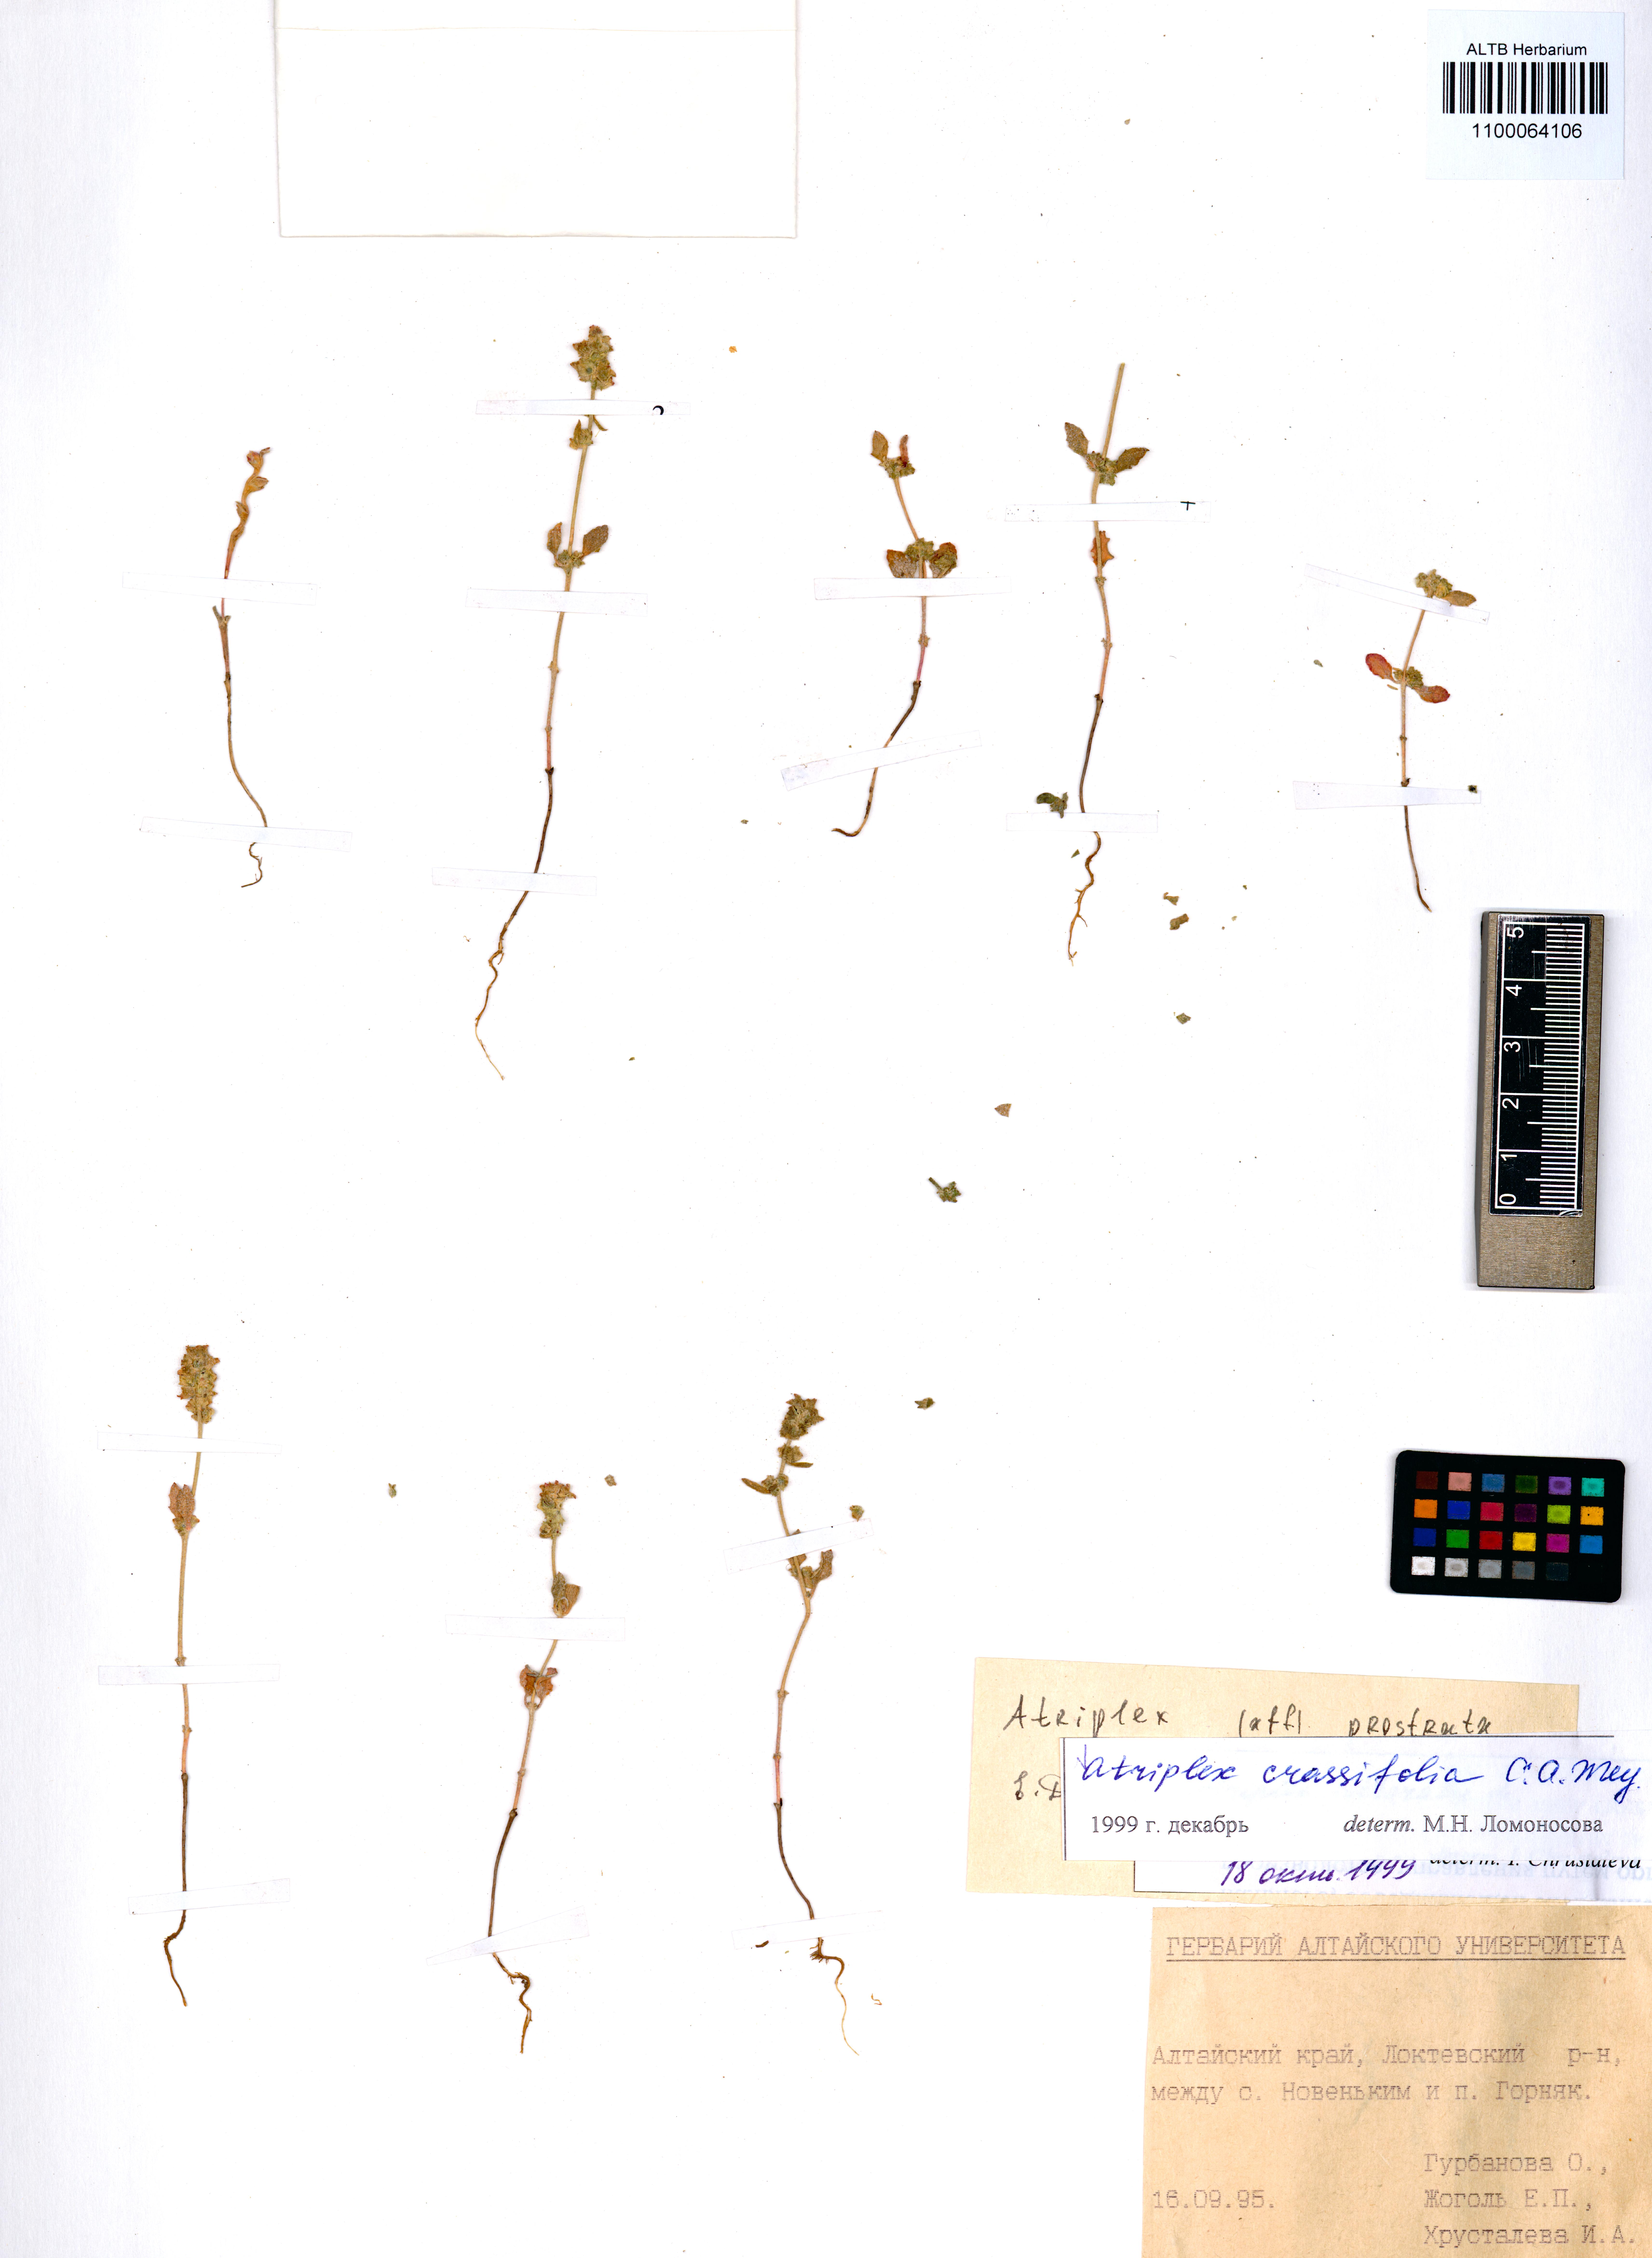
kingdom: Plantae
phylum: Tracheophyta
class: Magnoliopsida
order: Caryophyllales
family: Amaranthaceae
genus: Atriplex
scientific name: Atriplex crassifolia
